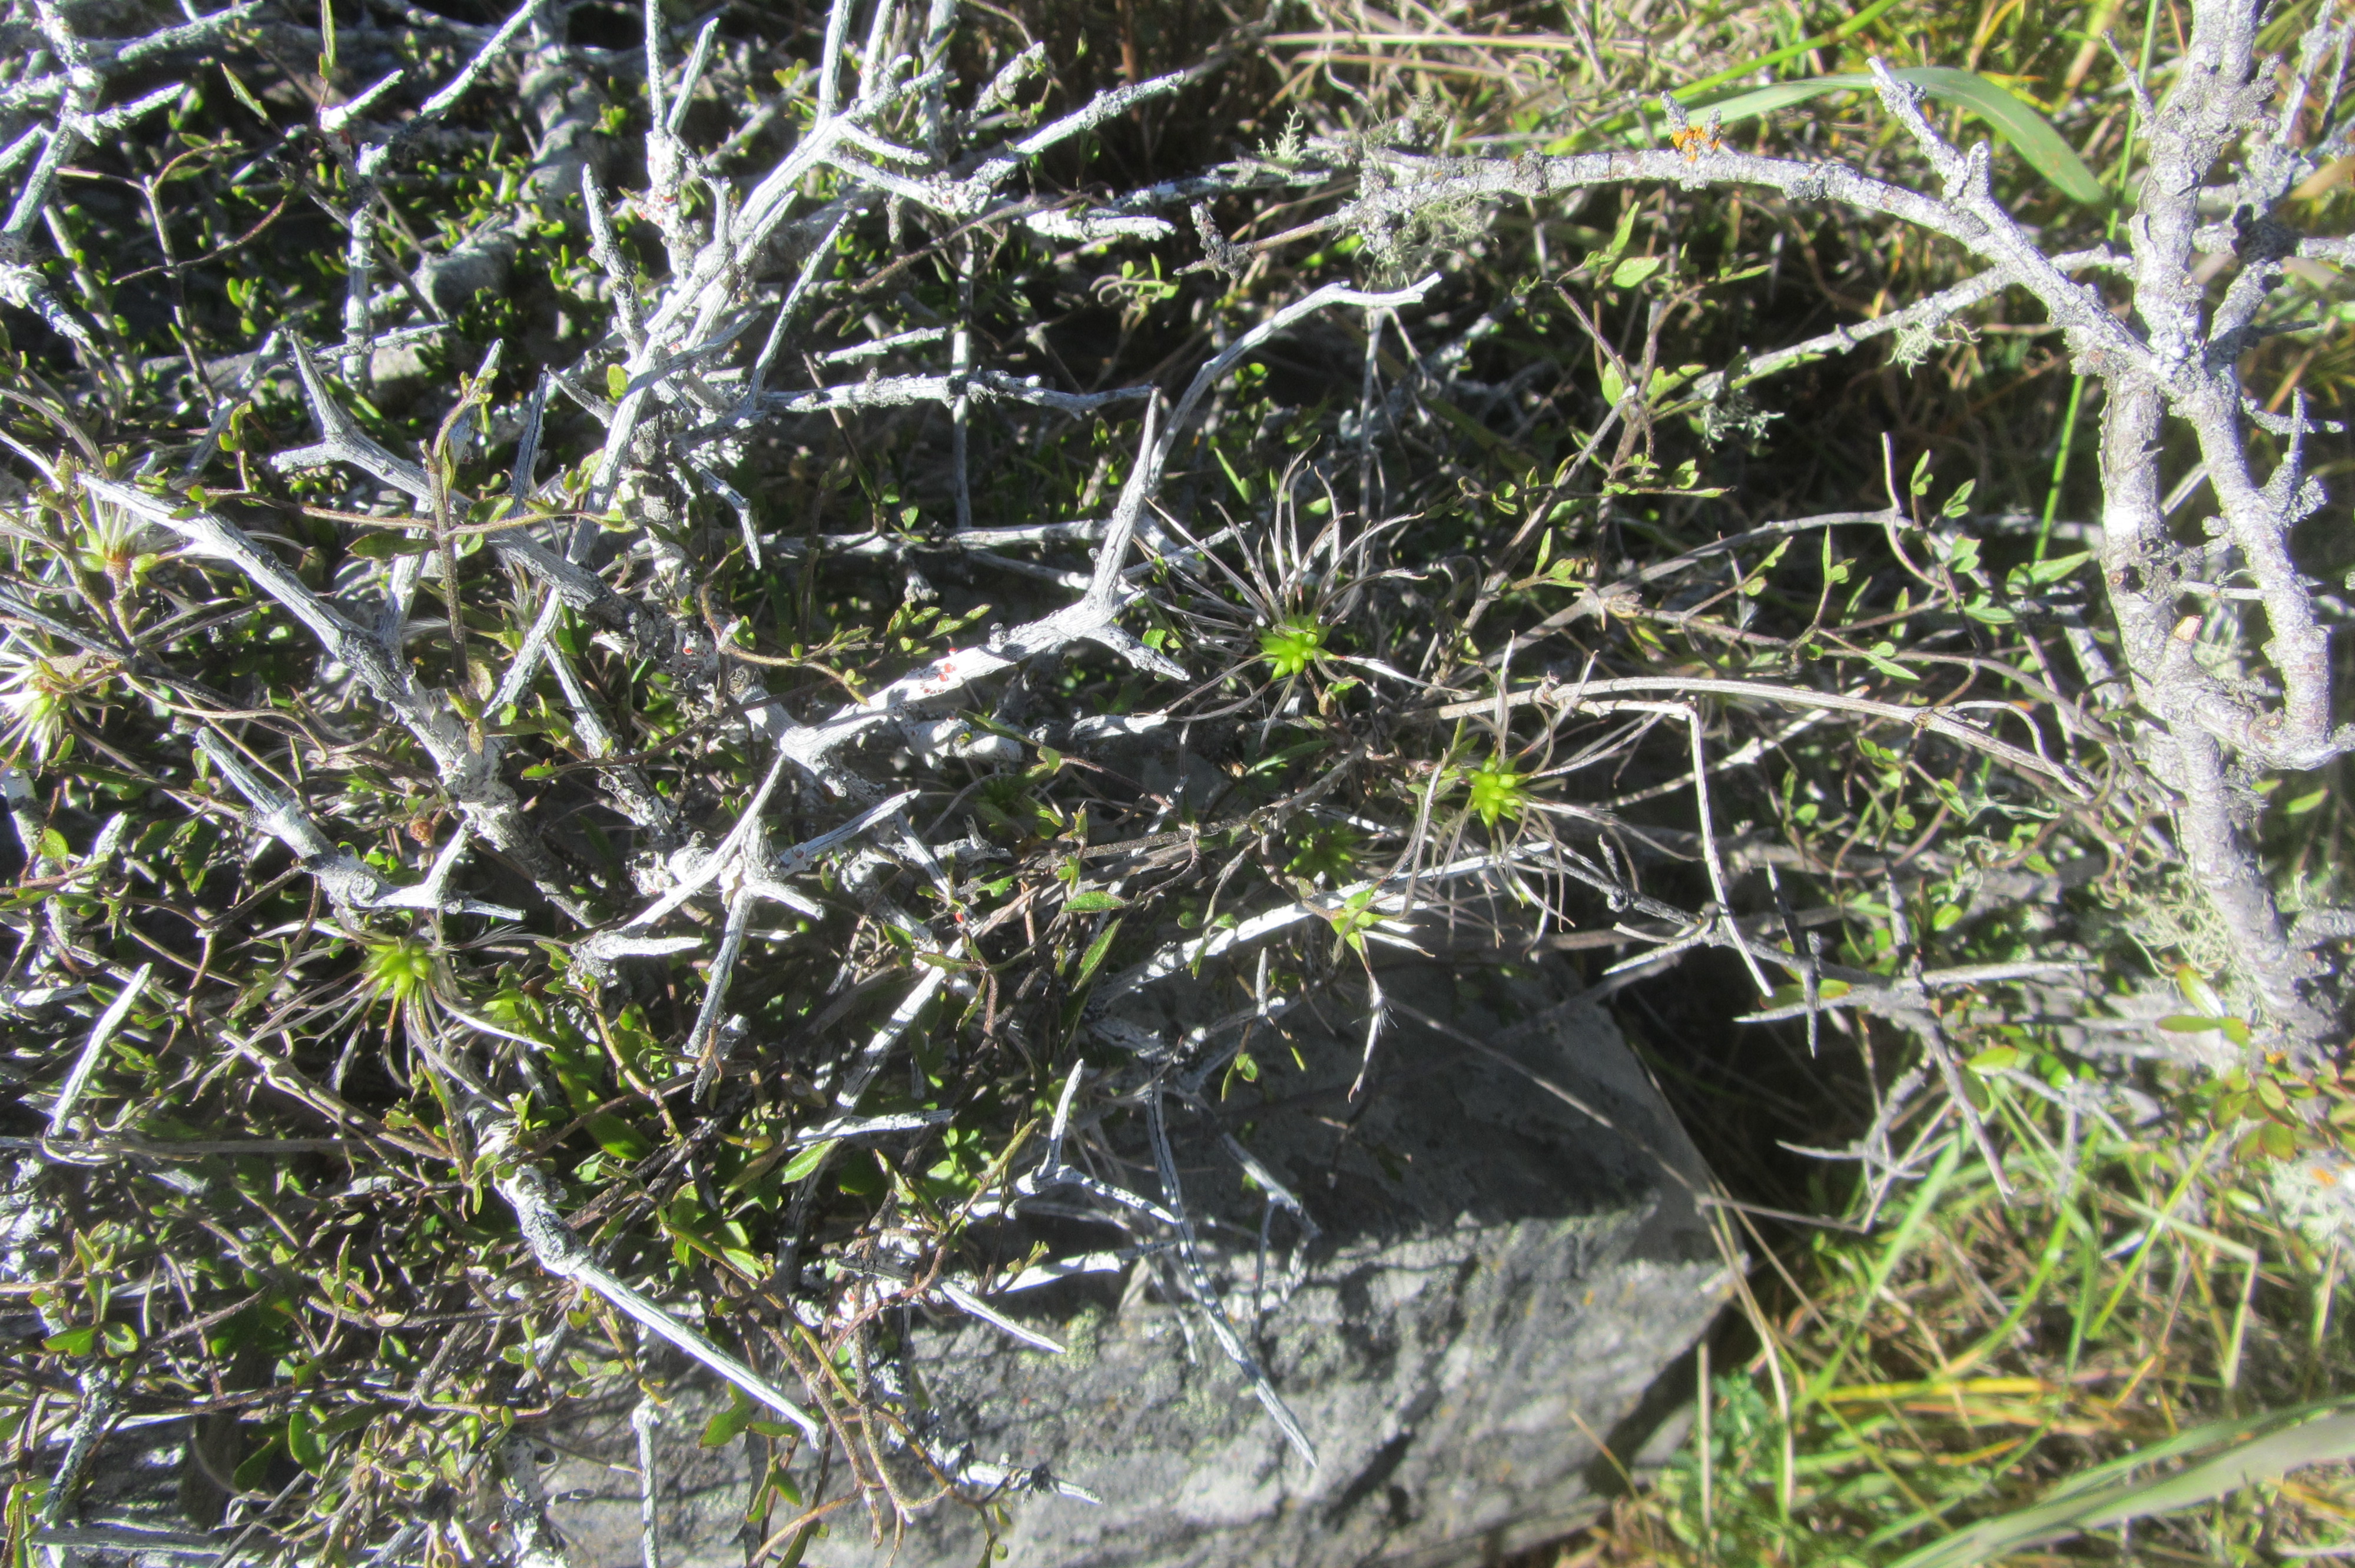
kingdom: Plantae
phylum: Tracheophyta
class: Magnoliopsida
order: Ranunculales
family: Ranunculaceae
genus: Clematis
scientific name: Clematis marata
